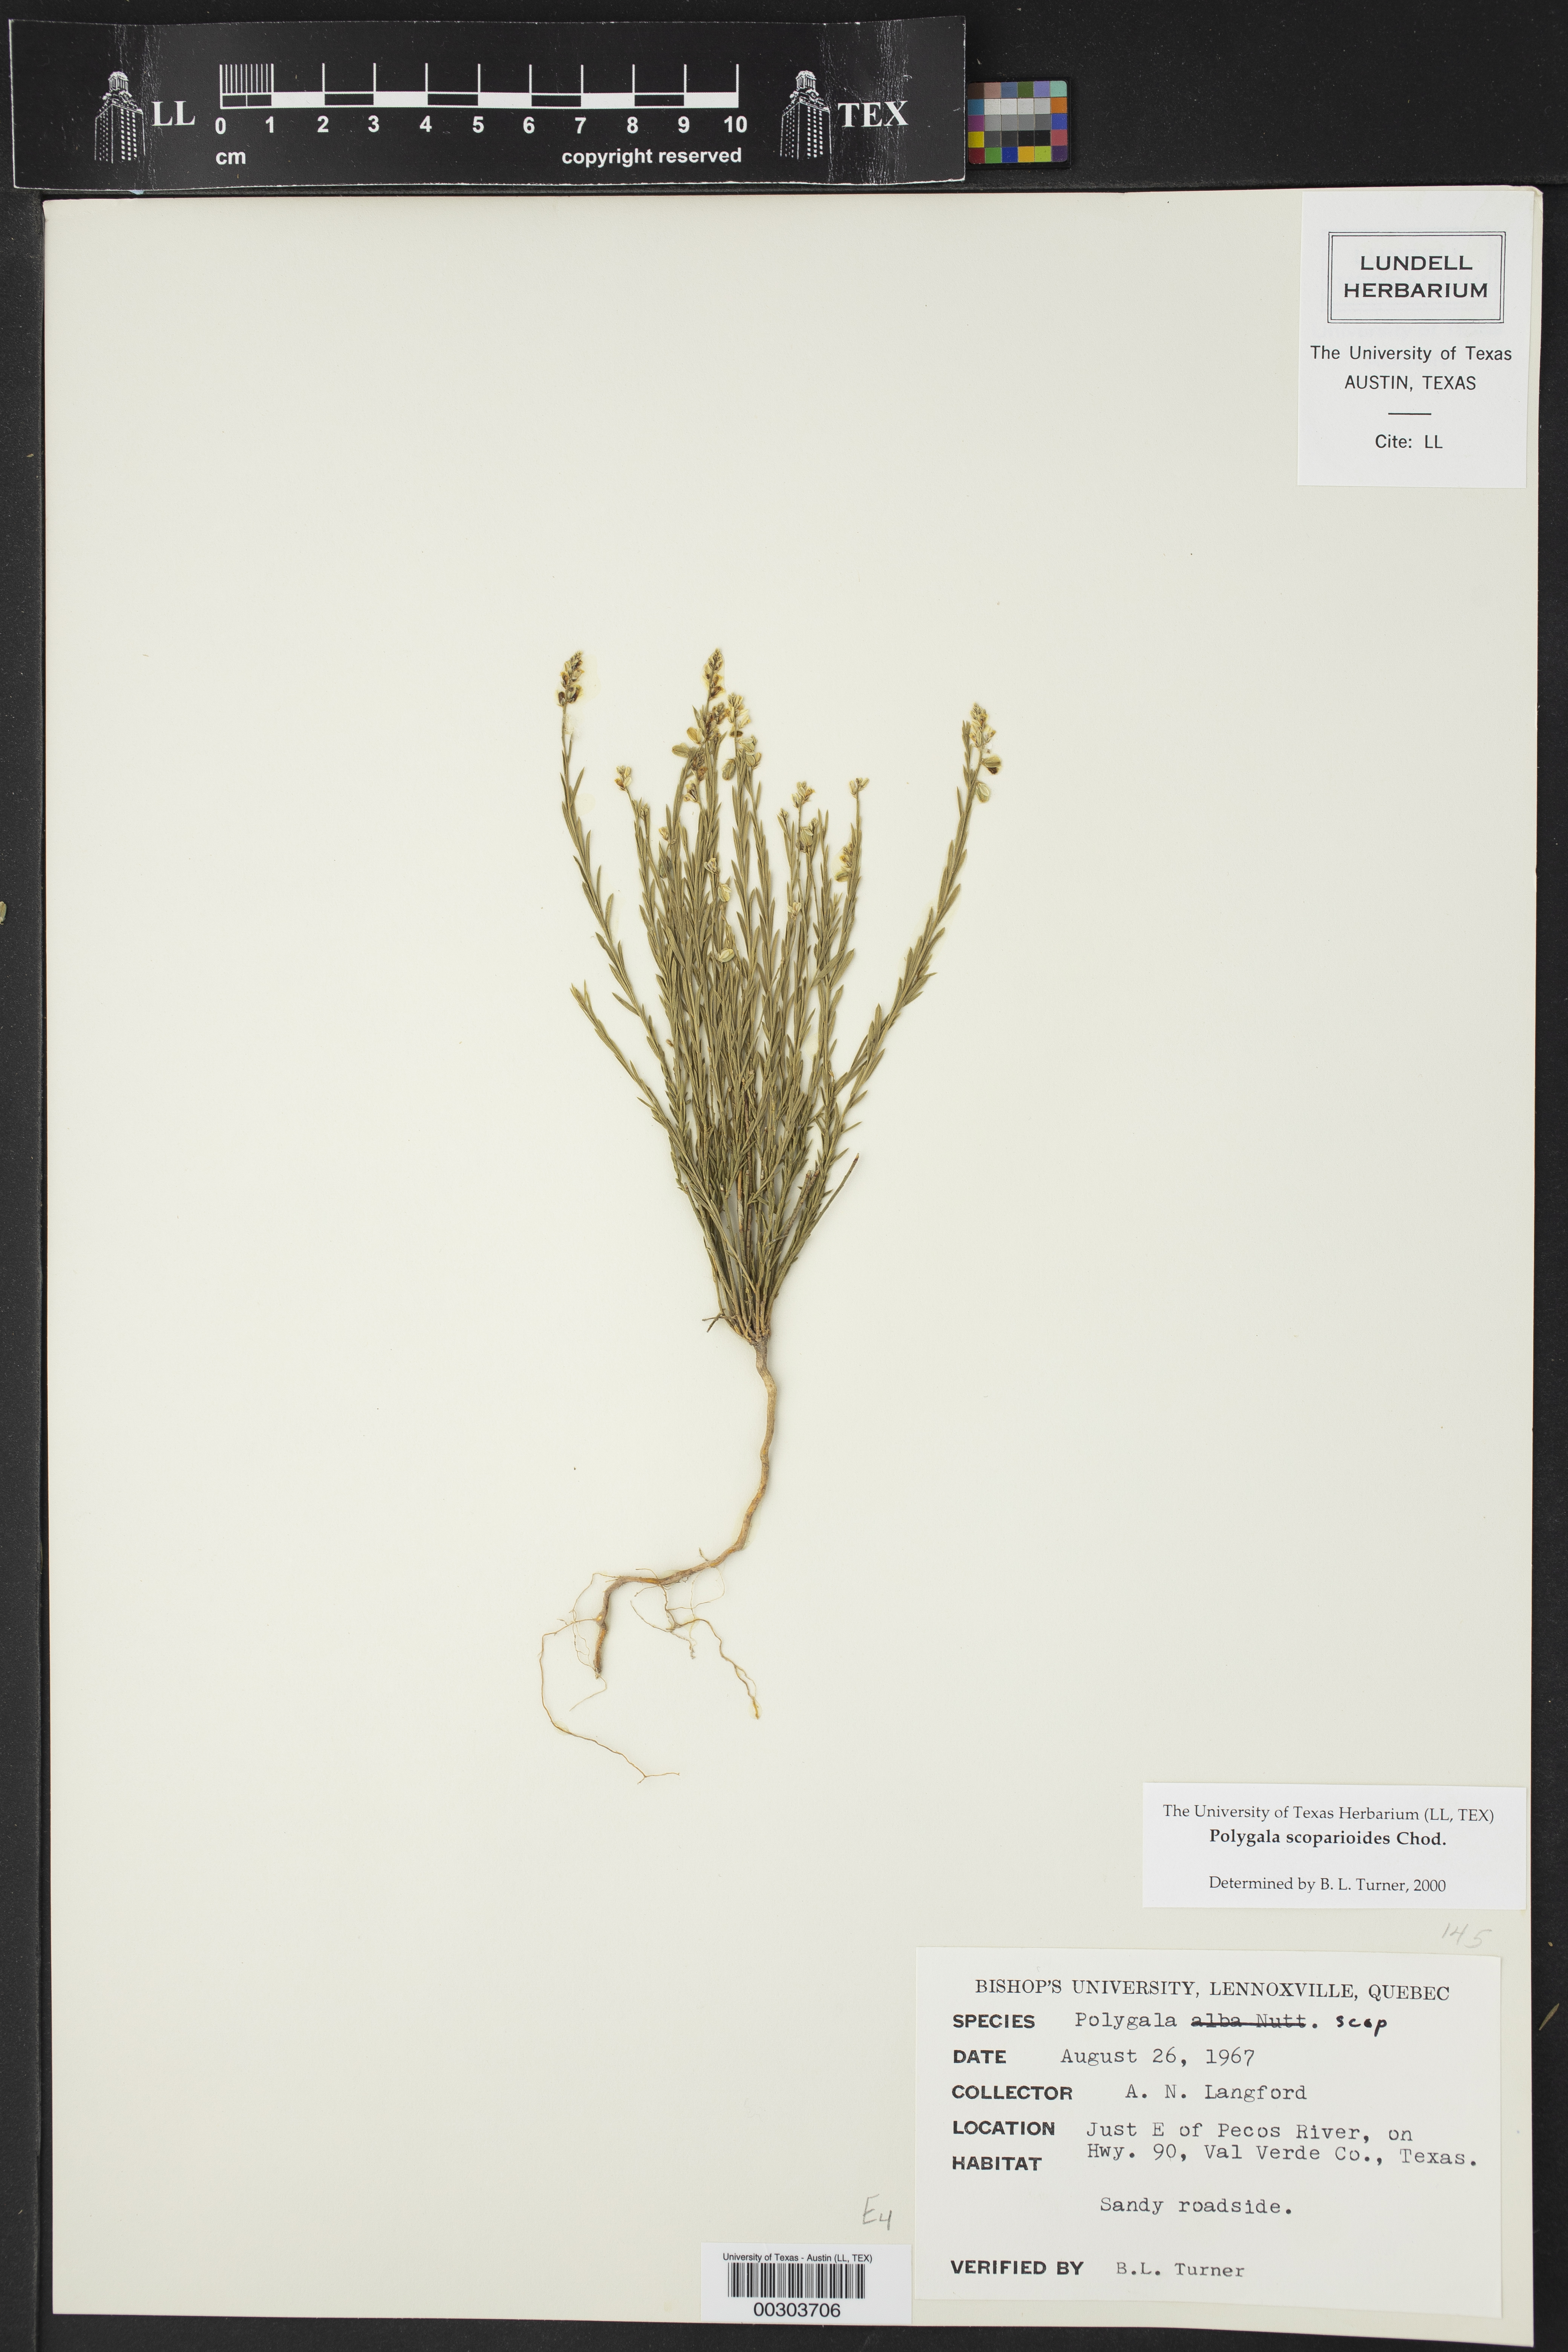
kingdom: Plantae
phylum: Tracheophyta
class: Magnoliopsida
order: Fabales
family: Polygalaceae
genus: Polygala
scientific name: Polygala scoparioides
